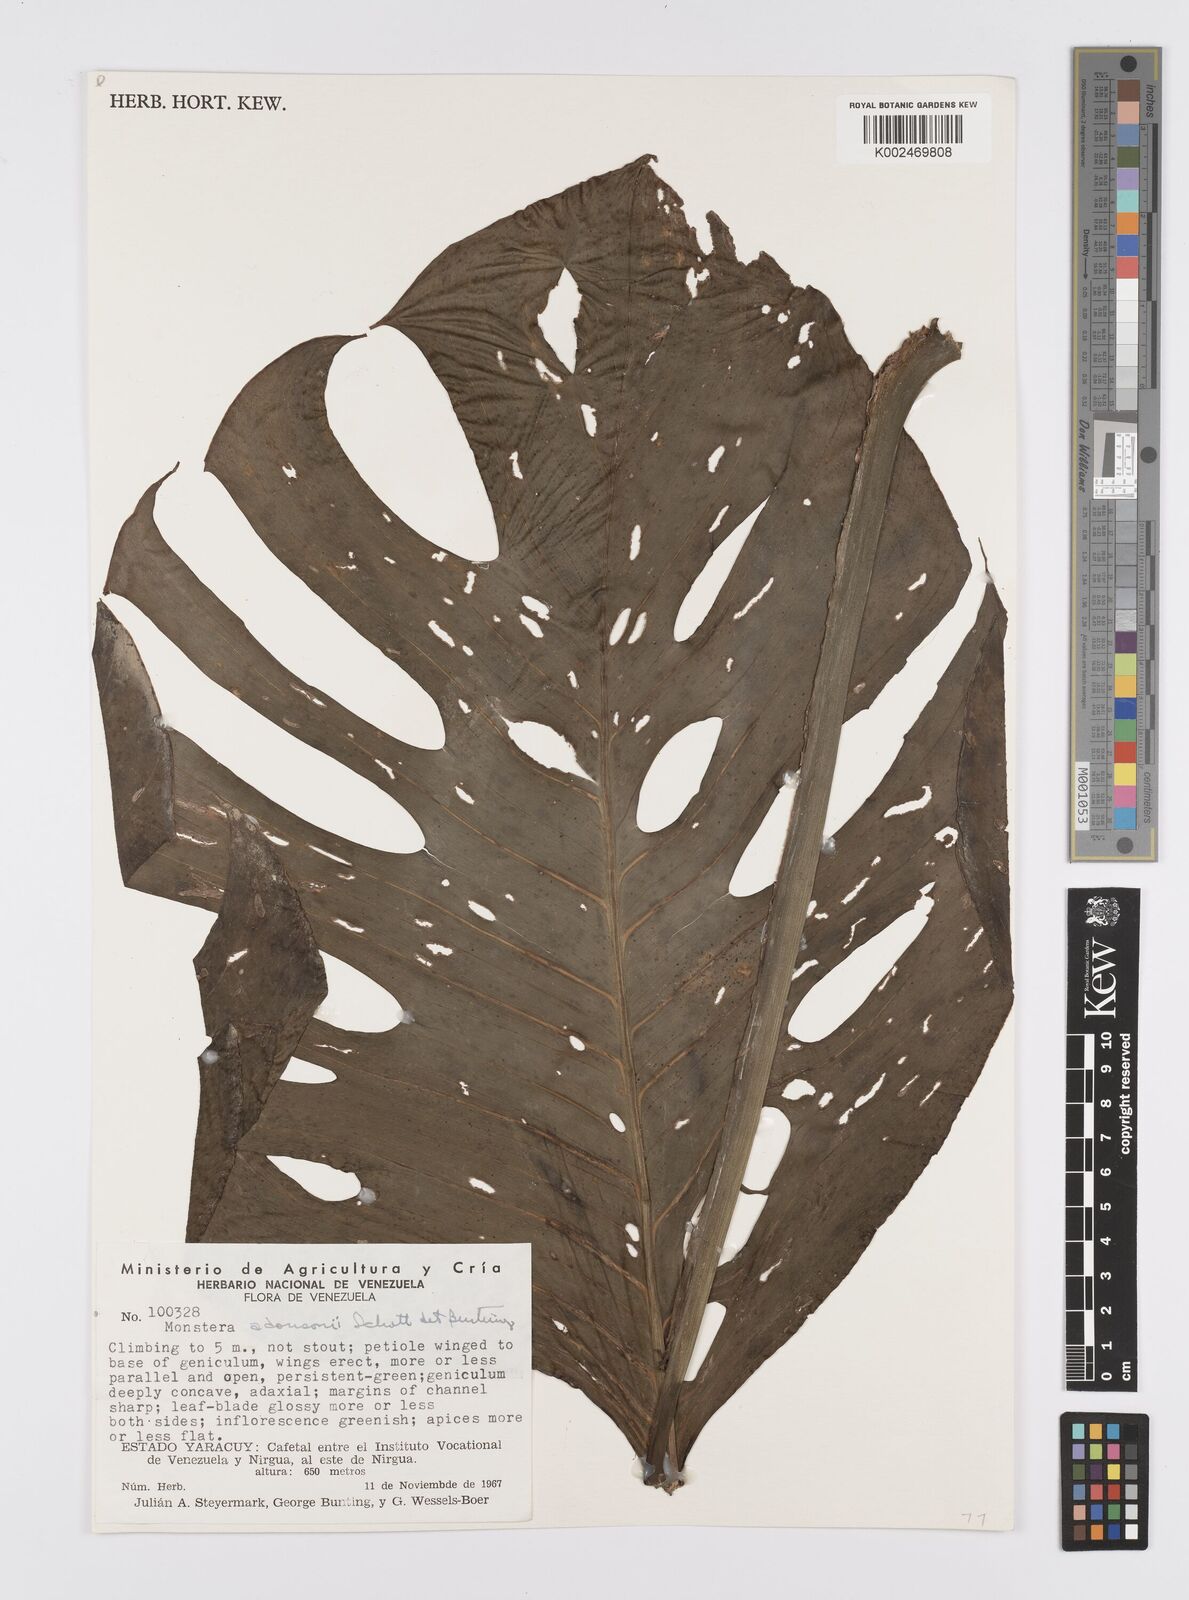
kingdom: Plantae
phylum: Tracheophyta
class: Liliopsida
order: Alismatales
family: Araceae
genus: Monstera
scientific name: Monstera adansonii
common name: Tarovine
